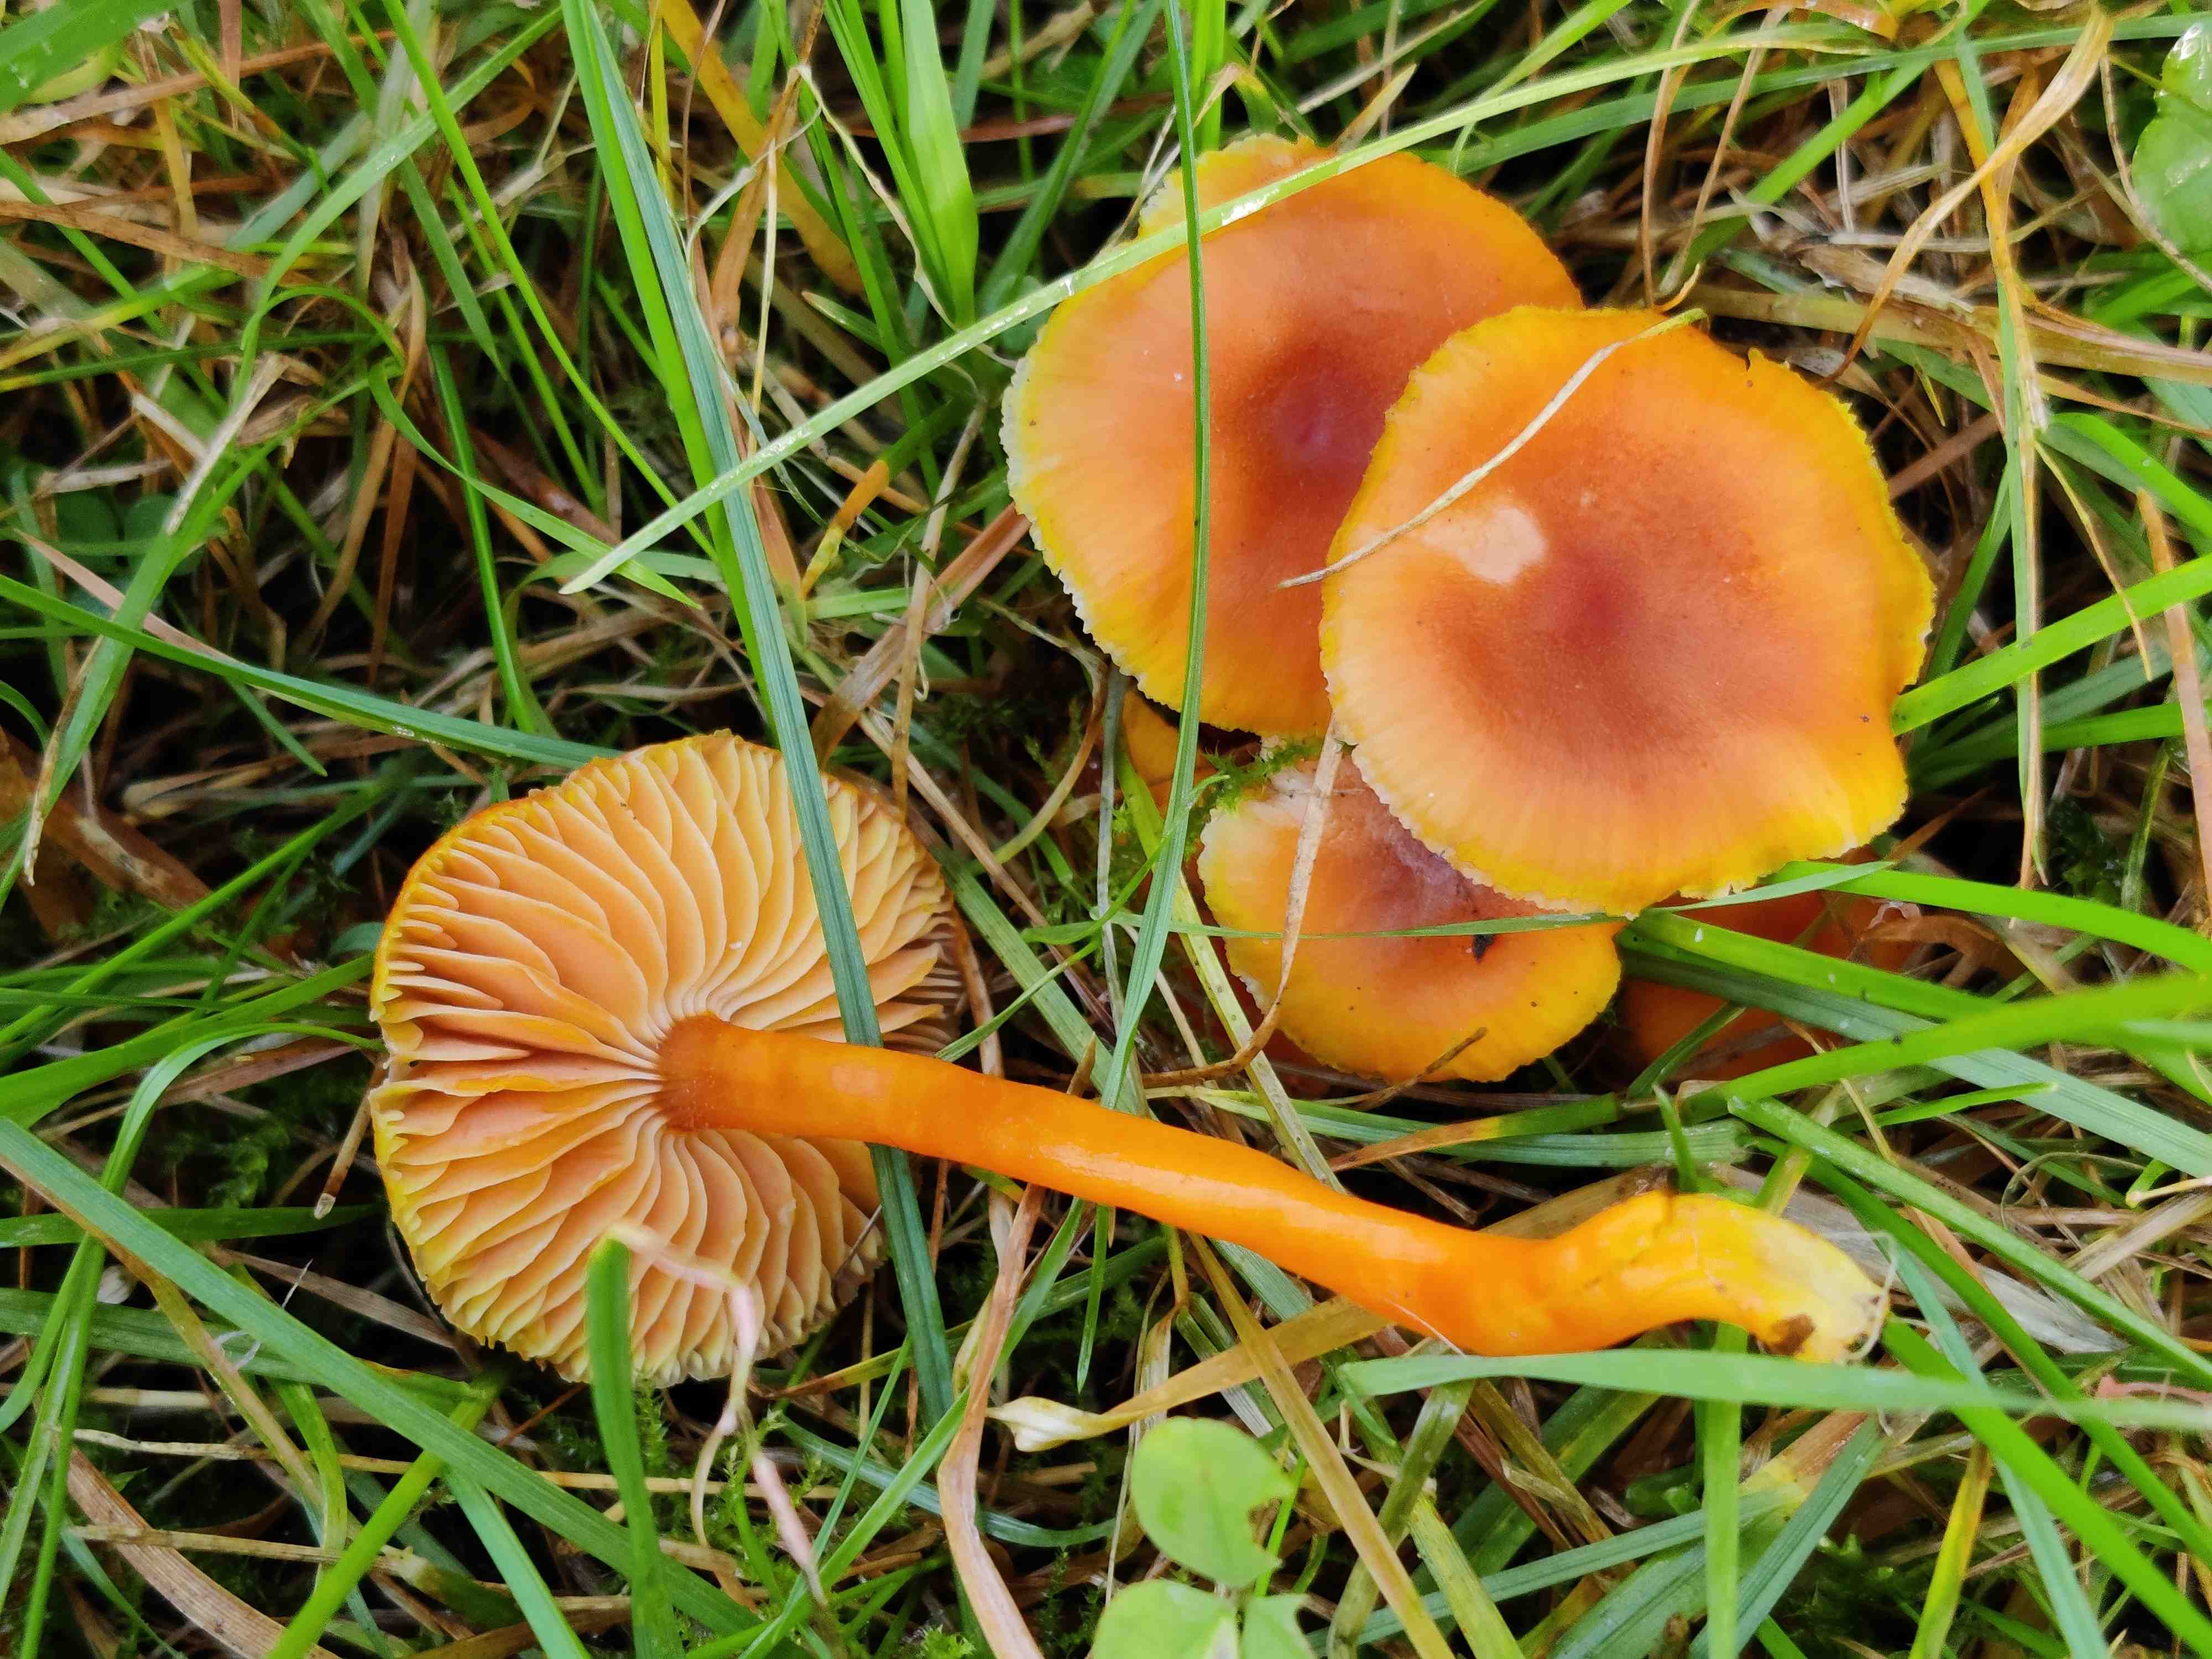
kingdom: Fungi
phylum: Basidiomycota
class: Agaricomycetes
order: Agaricales
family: Hygrophoraceae
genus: Hygrocybe
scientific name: Hygrocybe miniata
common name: mønje-vokshat
